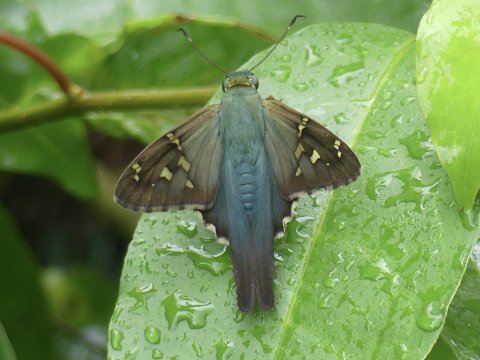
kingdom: Animalia
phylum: Arthropoda
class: Insecta
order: Lepidoptera
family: Hesperiidae
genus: Urbanus
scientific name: Urbanus proteus
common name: Long-tailed Skipper
